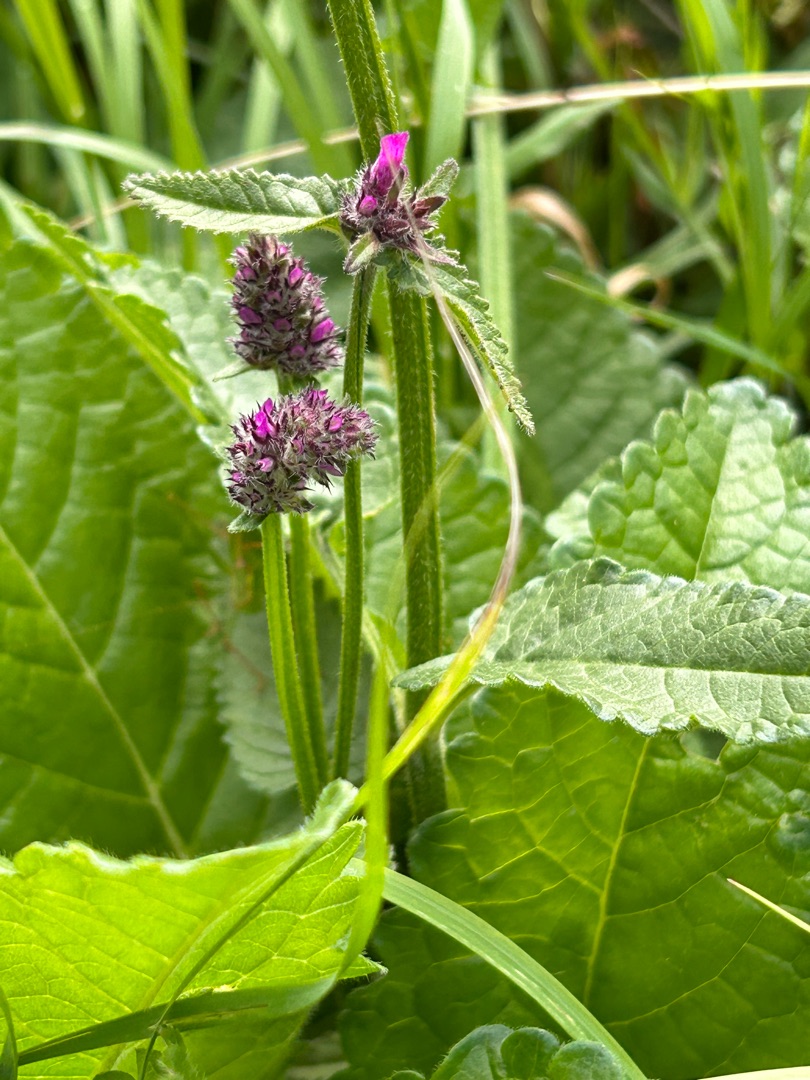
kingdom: Plantae
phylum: Tracheophyta
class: Magnoliopsida
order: Lamiales
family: Lamiaceae
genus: Betonica
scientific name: Betonica officinalis
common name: Betonie
